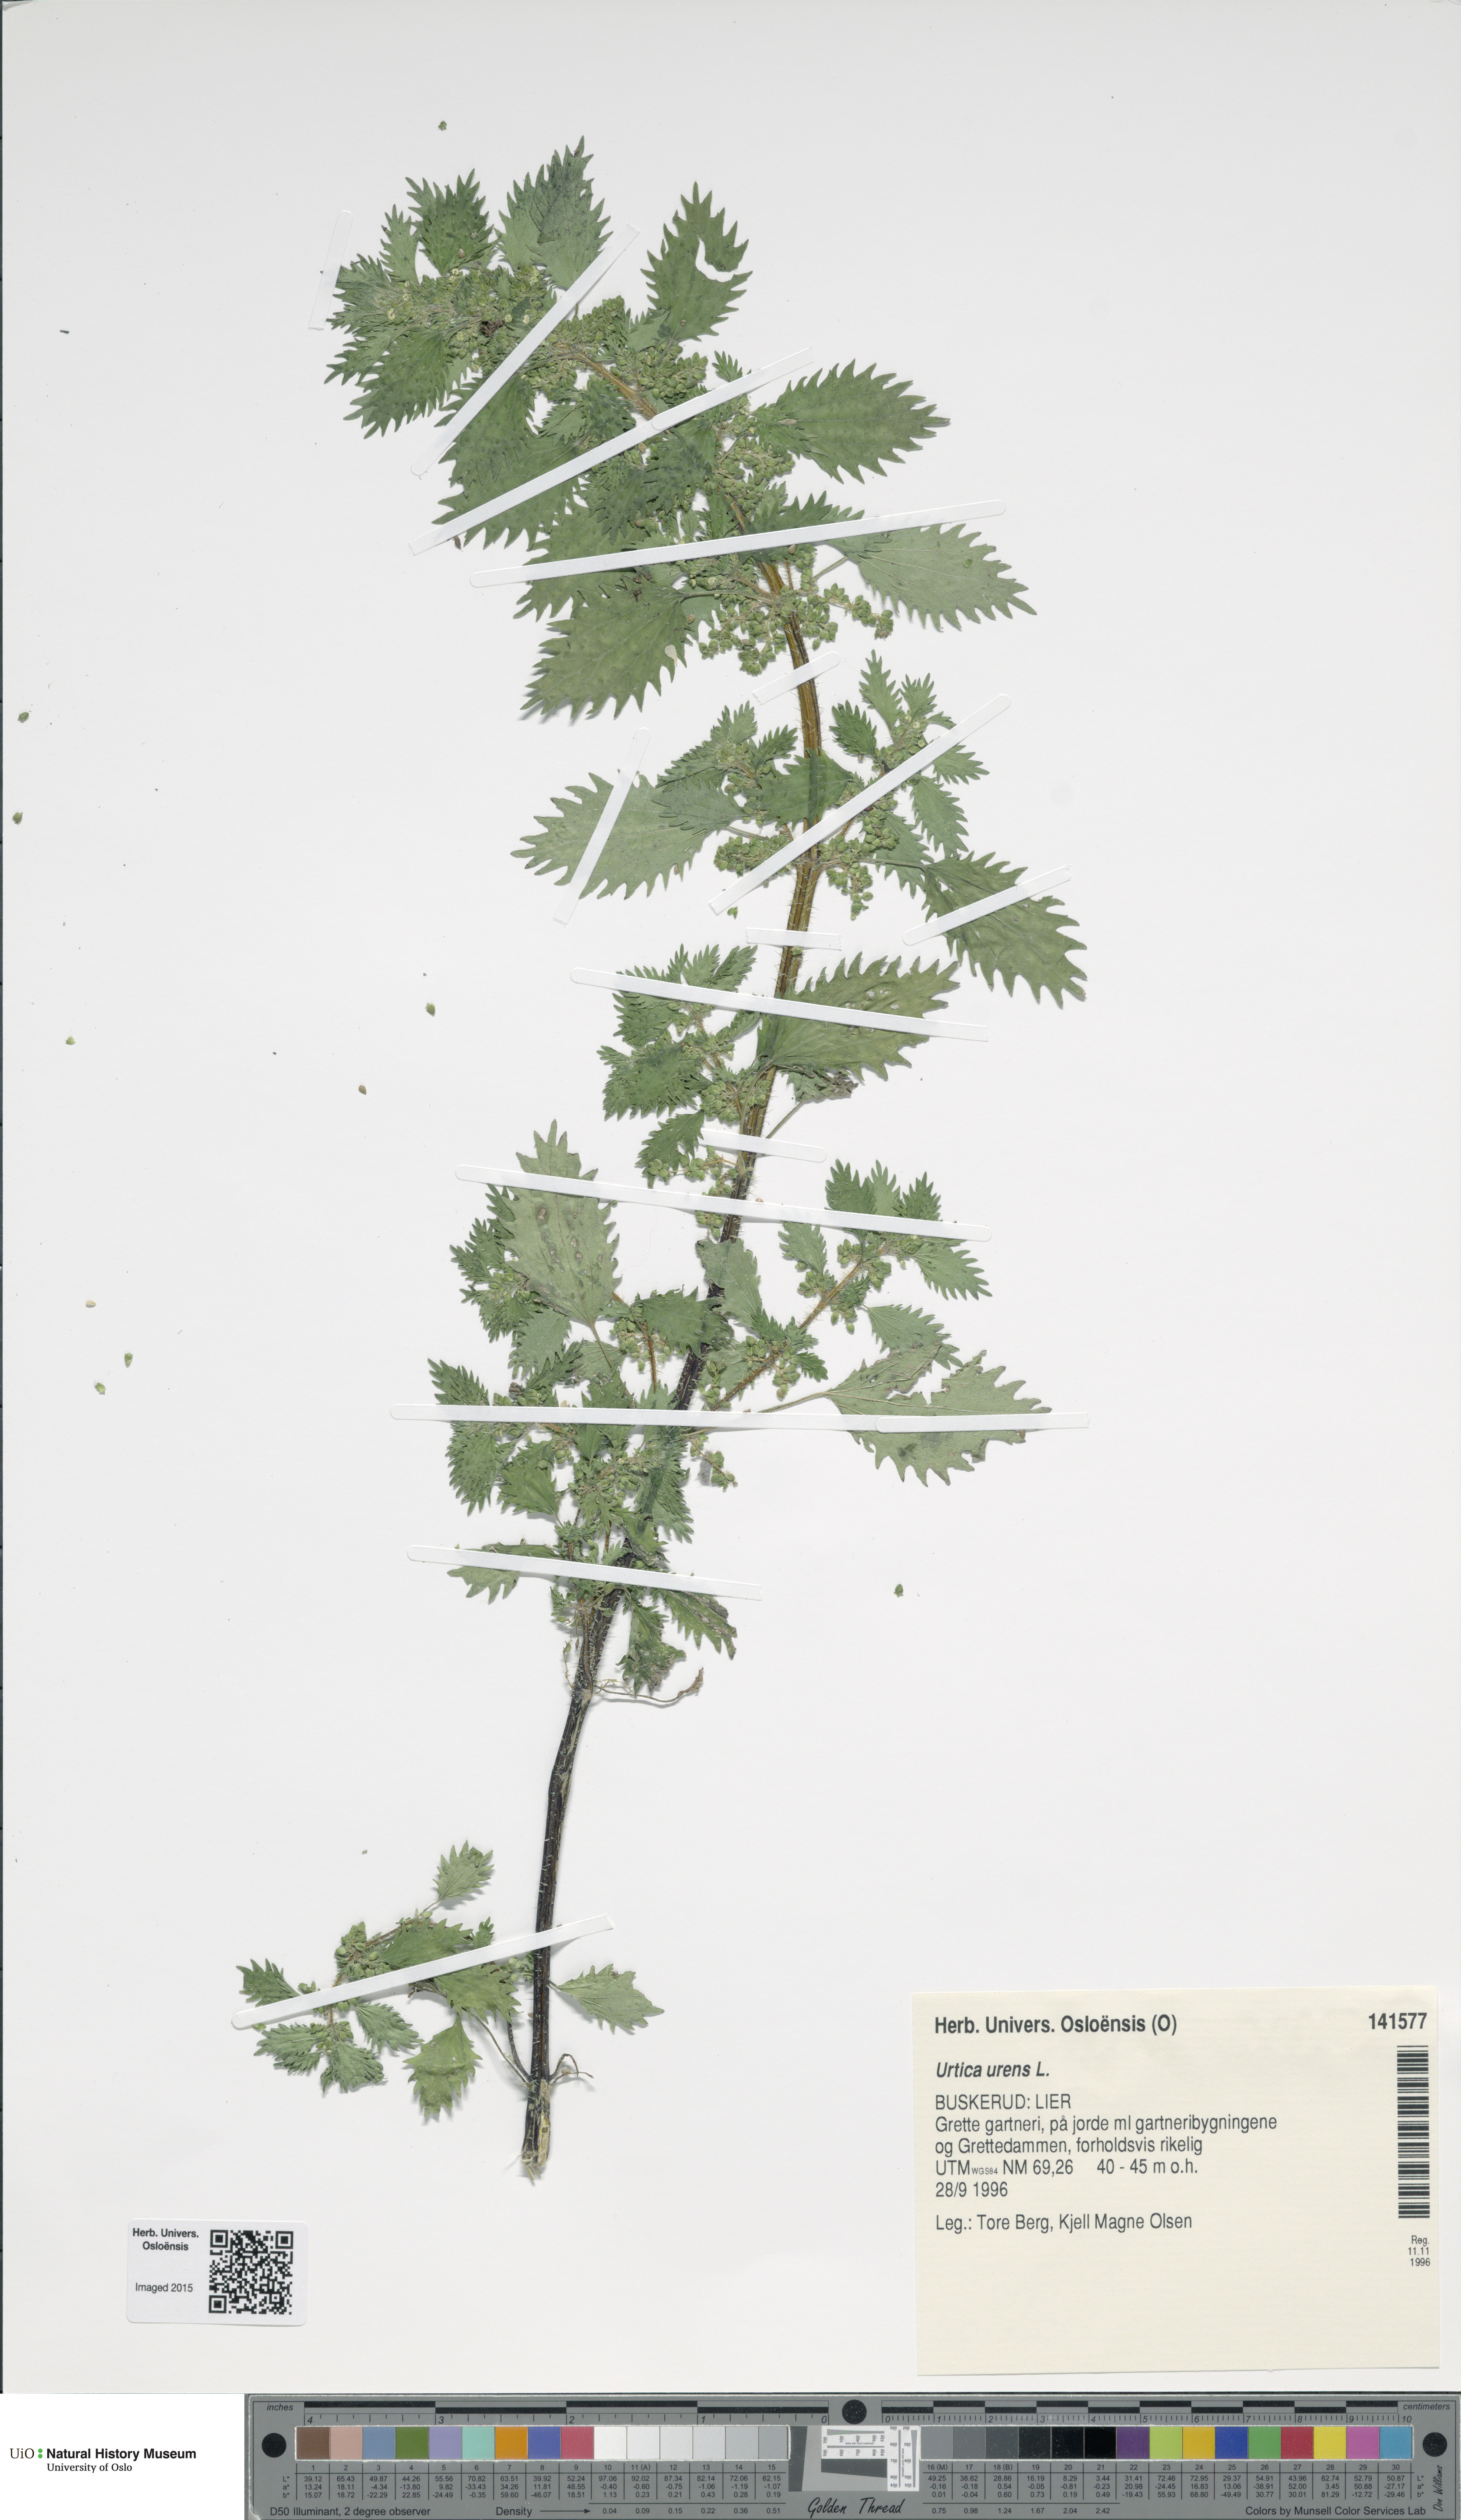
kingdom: Plantae
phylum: Tracheophyta
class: Magnoliopsida
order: Rosales
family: Urticaceae
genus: Urtica
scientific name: Urtica urens
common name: Dwarf nettle
